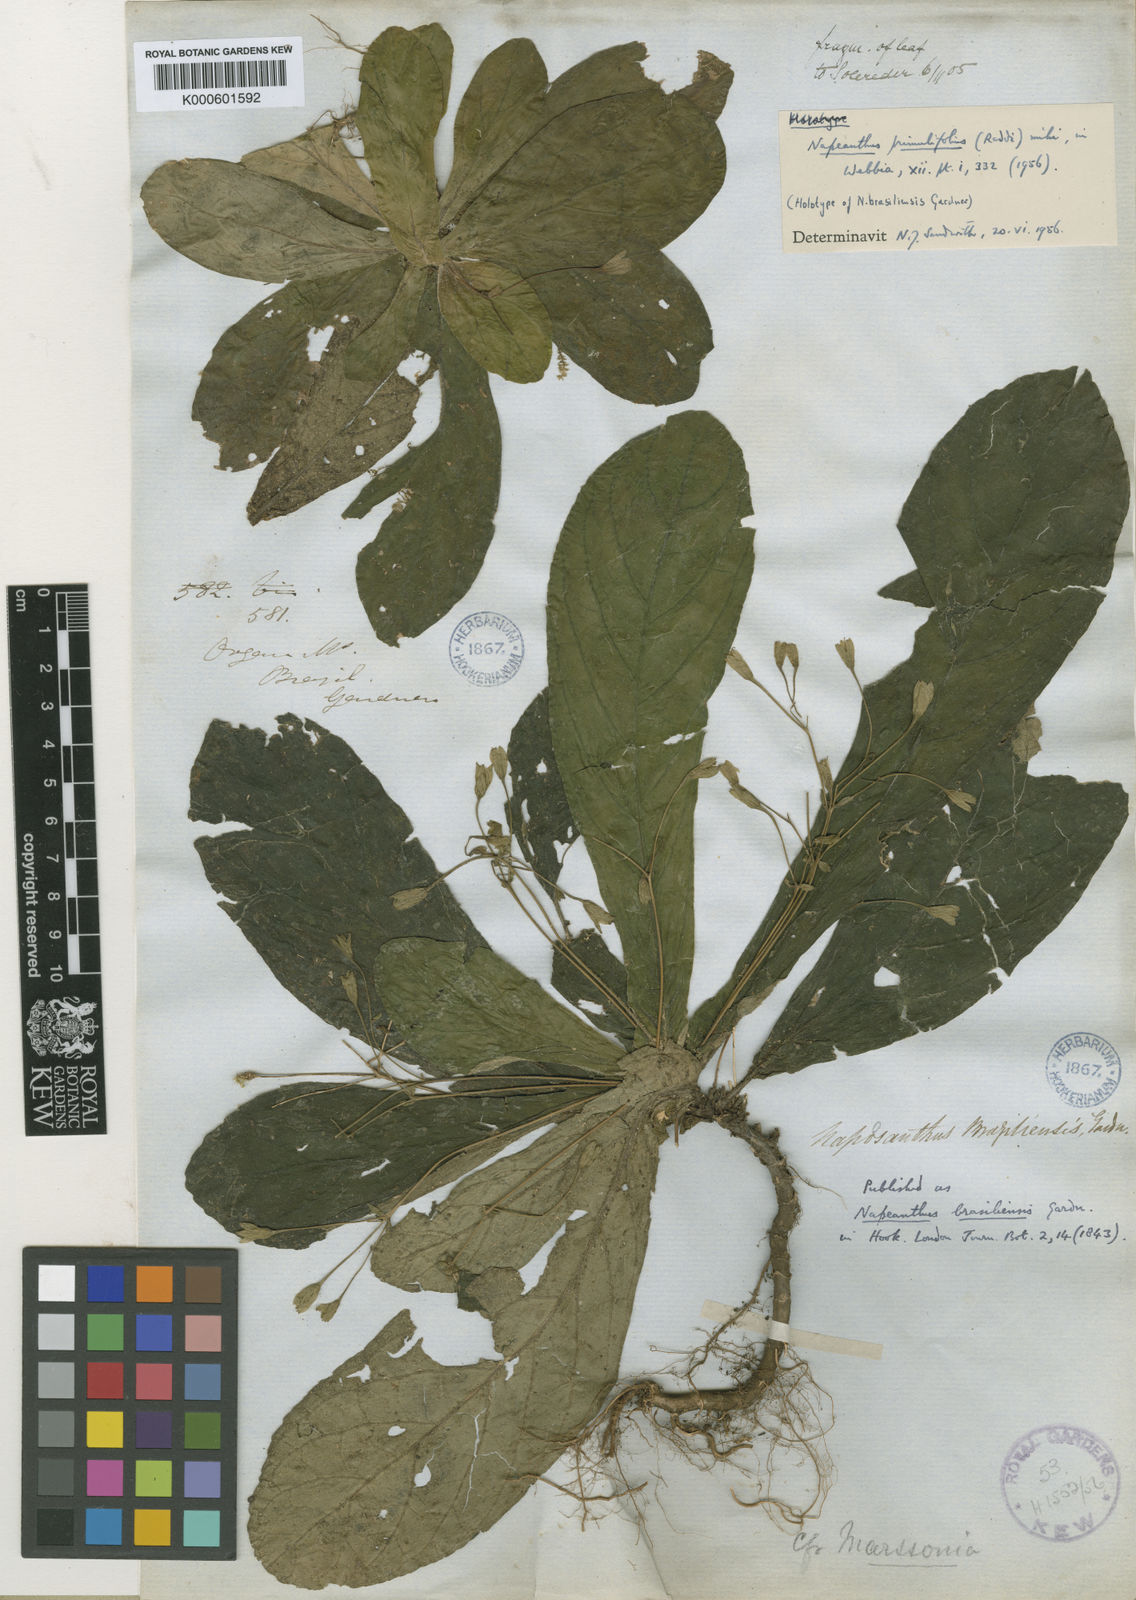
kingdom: Plantae
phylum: Tracheophyta
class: Magnoliopsida
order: Lamiales
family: Gesneriaceae
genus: Napeanthus
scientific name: Napeanthus primulifolius
